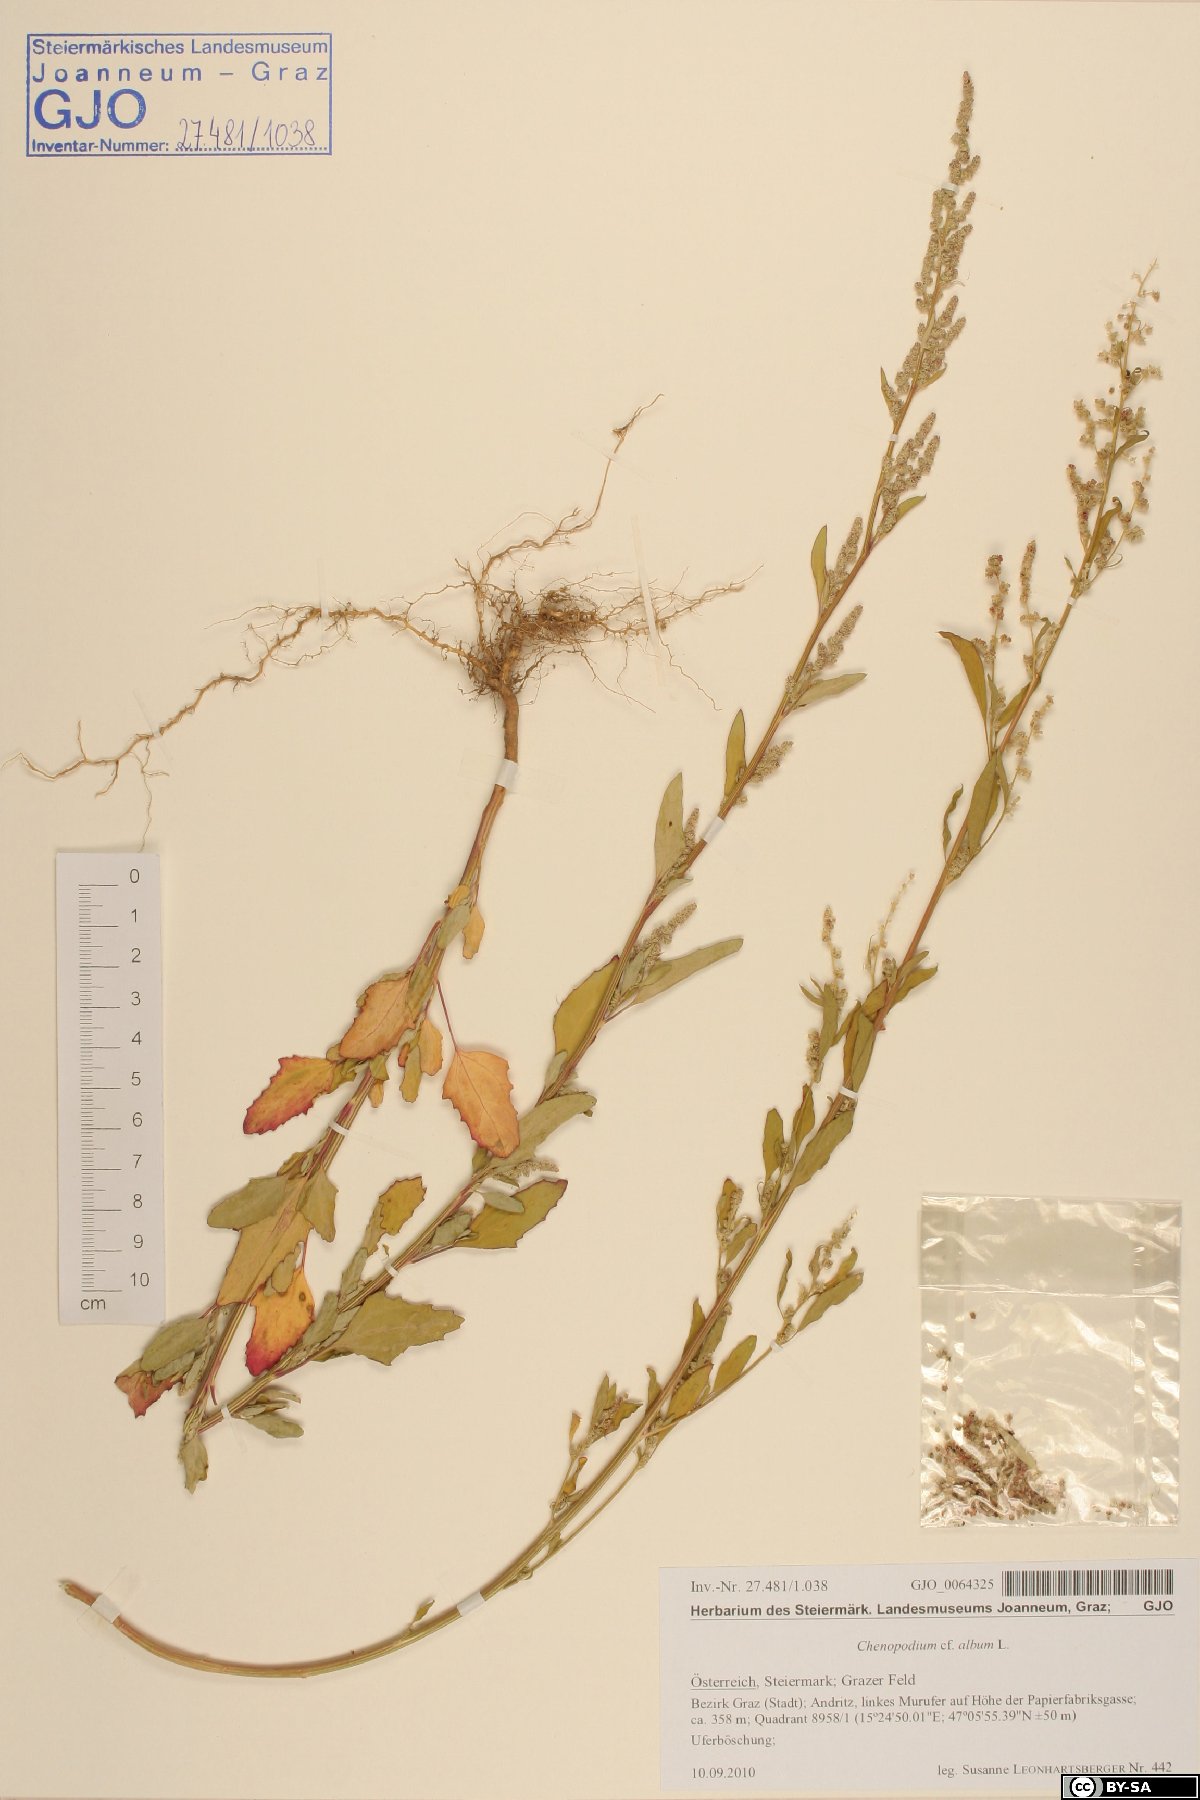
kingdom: Plantae
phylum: Tracheophyta
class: Magnoliopsida
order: Caryophyllales
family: Amaranthaceae
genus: Chenopodium
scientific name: Chenopodium album
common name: Fat-hen
